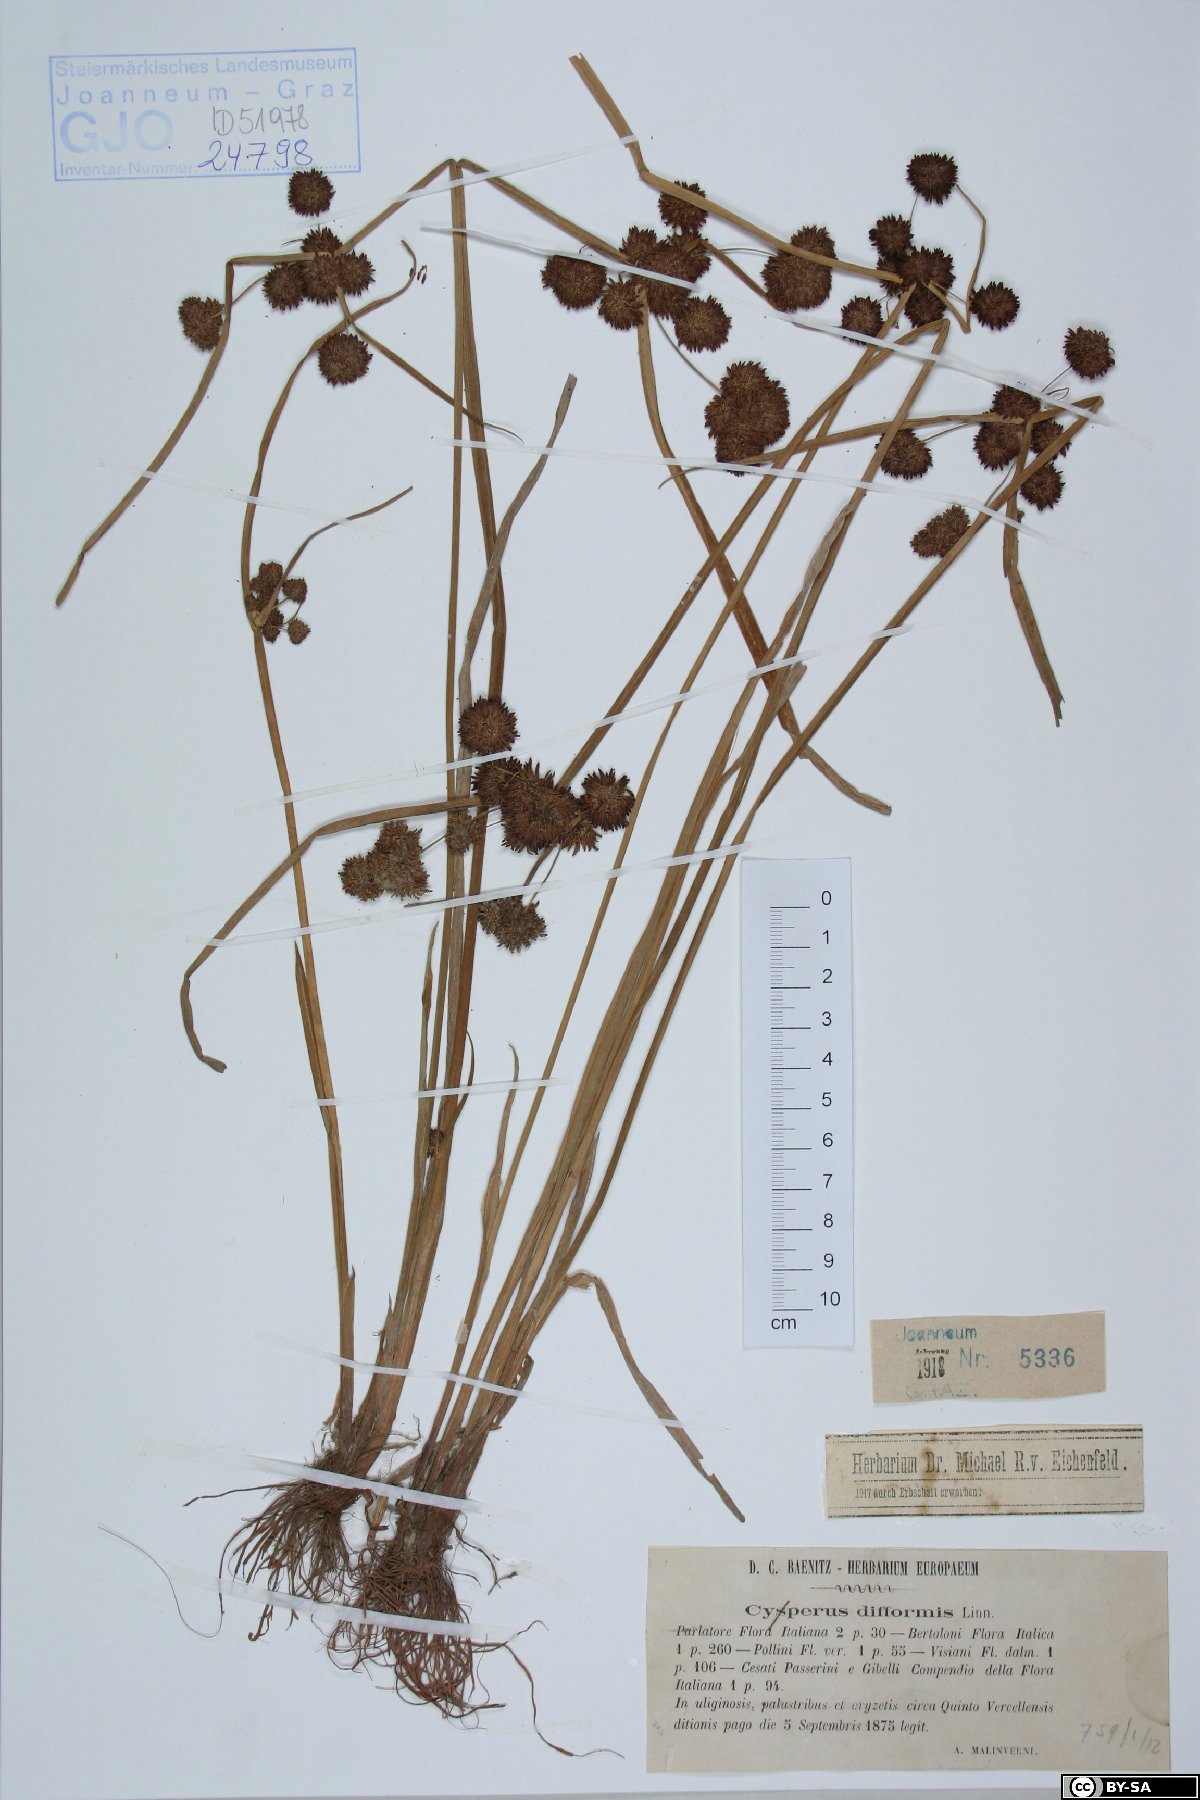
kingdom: Plantae
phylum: Tracheophyta
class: Liliopsida
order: Poales
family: Cyperaceae
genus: Cyperus
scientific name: Cyperus difformis
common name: Variable flatsedge
